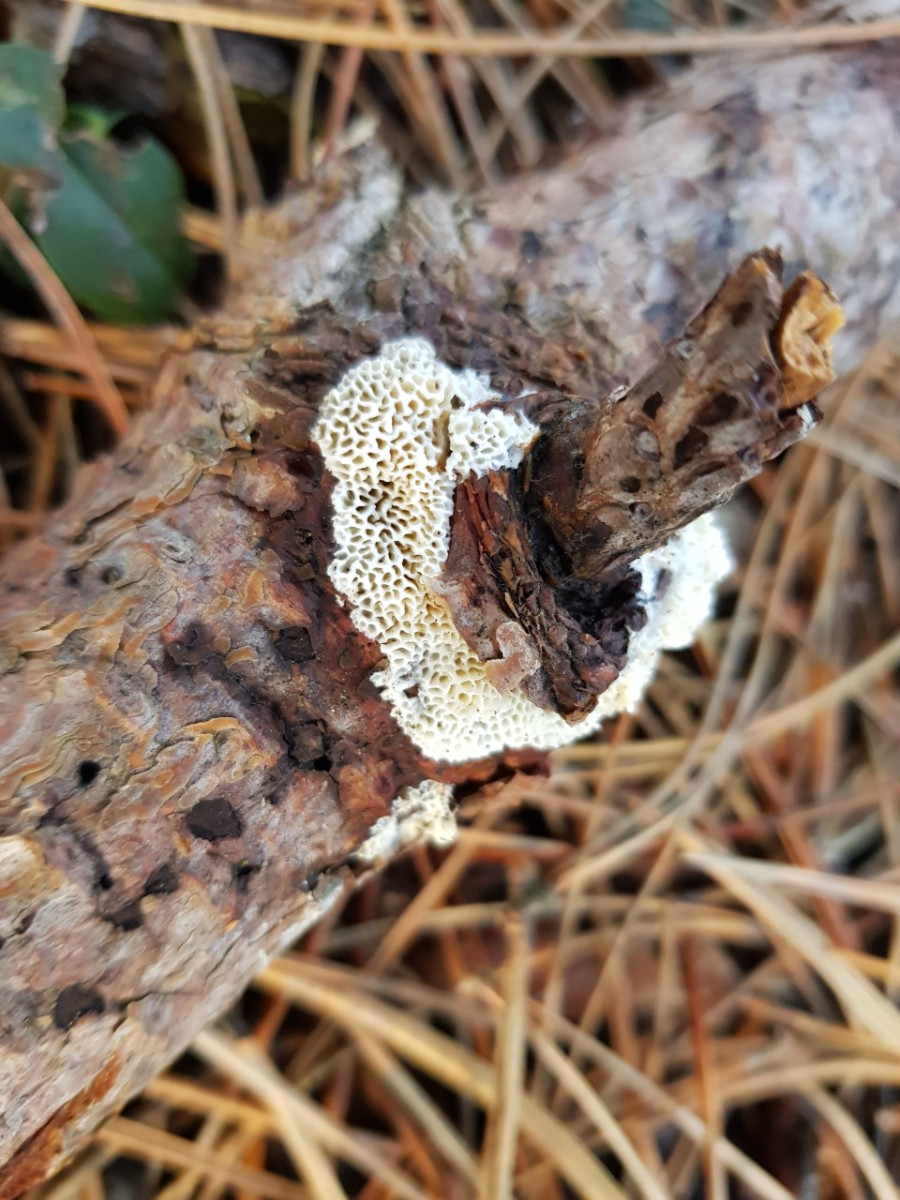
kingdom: Fungi
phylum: Basidiomycota
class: Agaricomycetes
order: Polyporales
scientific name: Polyporales
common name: poresvampordenen
